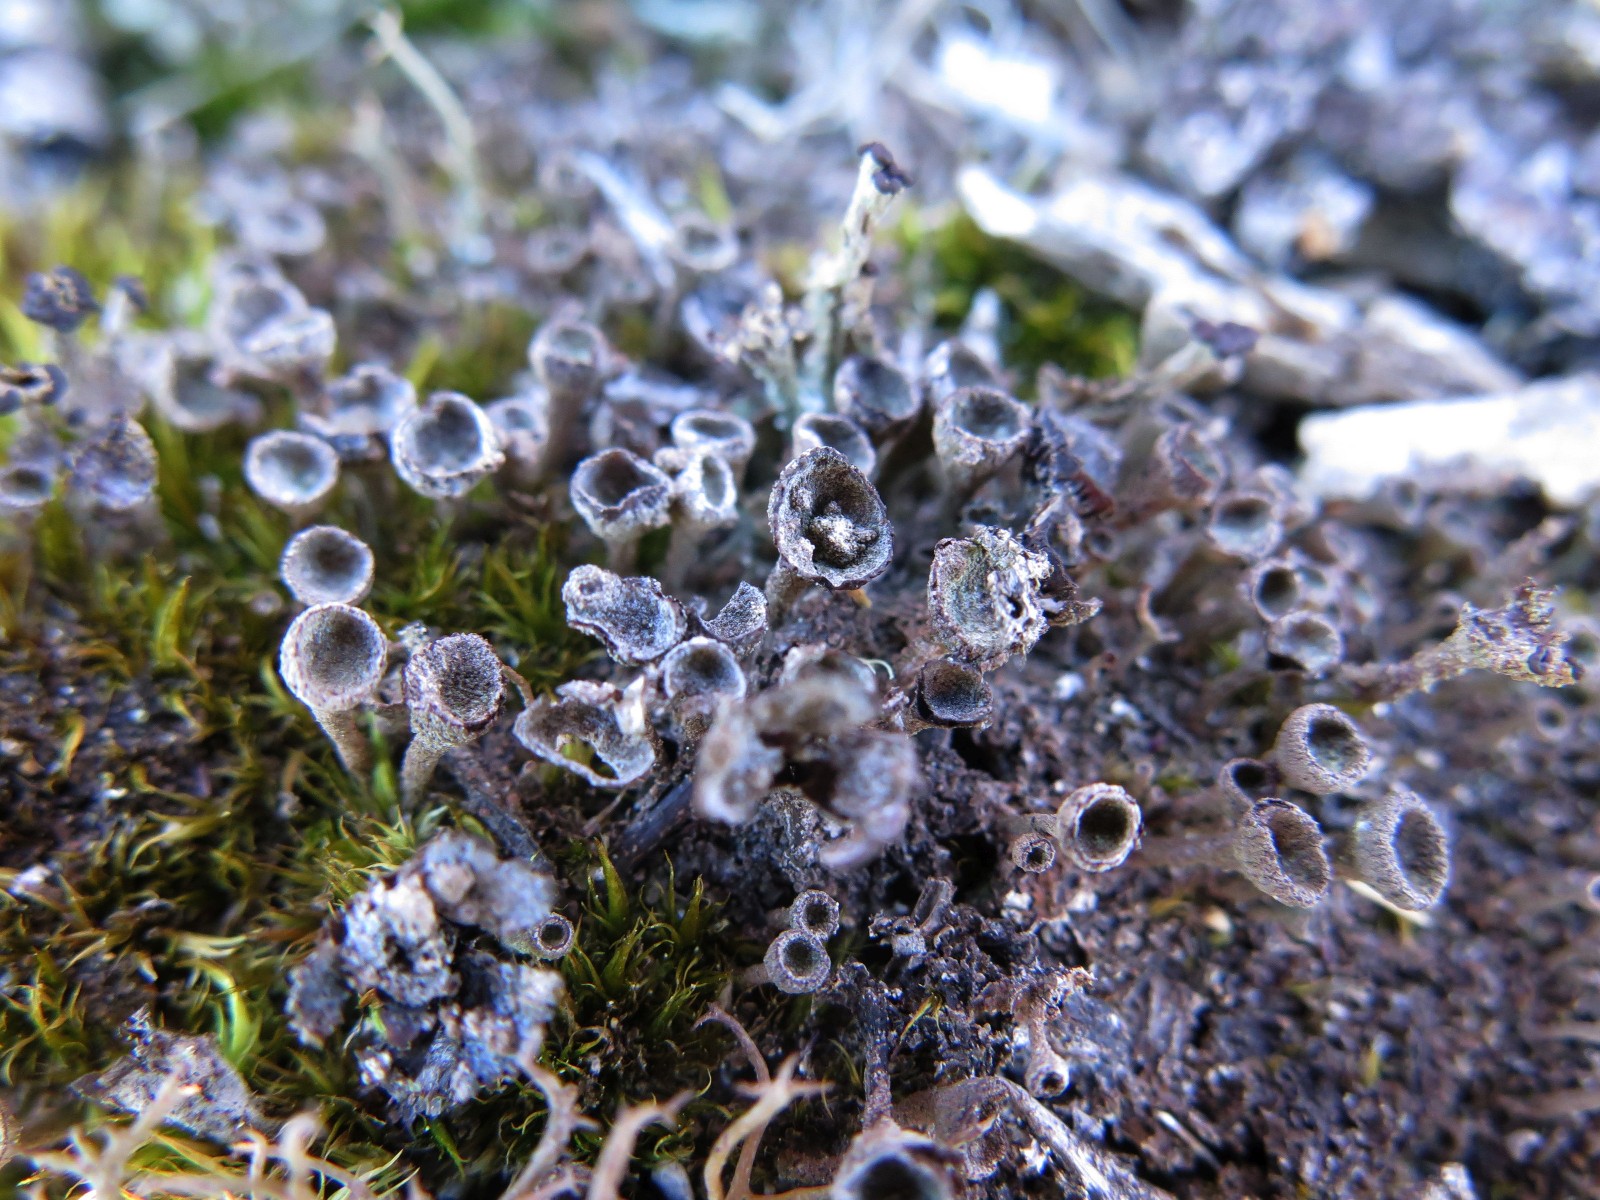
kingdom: Fungi
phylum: Ascomycota
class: Lecanoromycetes
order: Lecanorales
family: Cladoniaceae
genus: Cladonia
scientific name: Cladonia merochlorophaea
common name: mørk bægerlav
